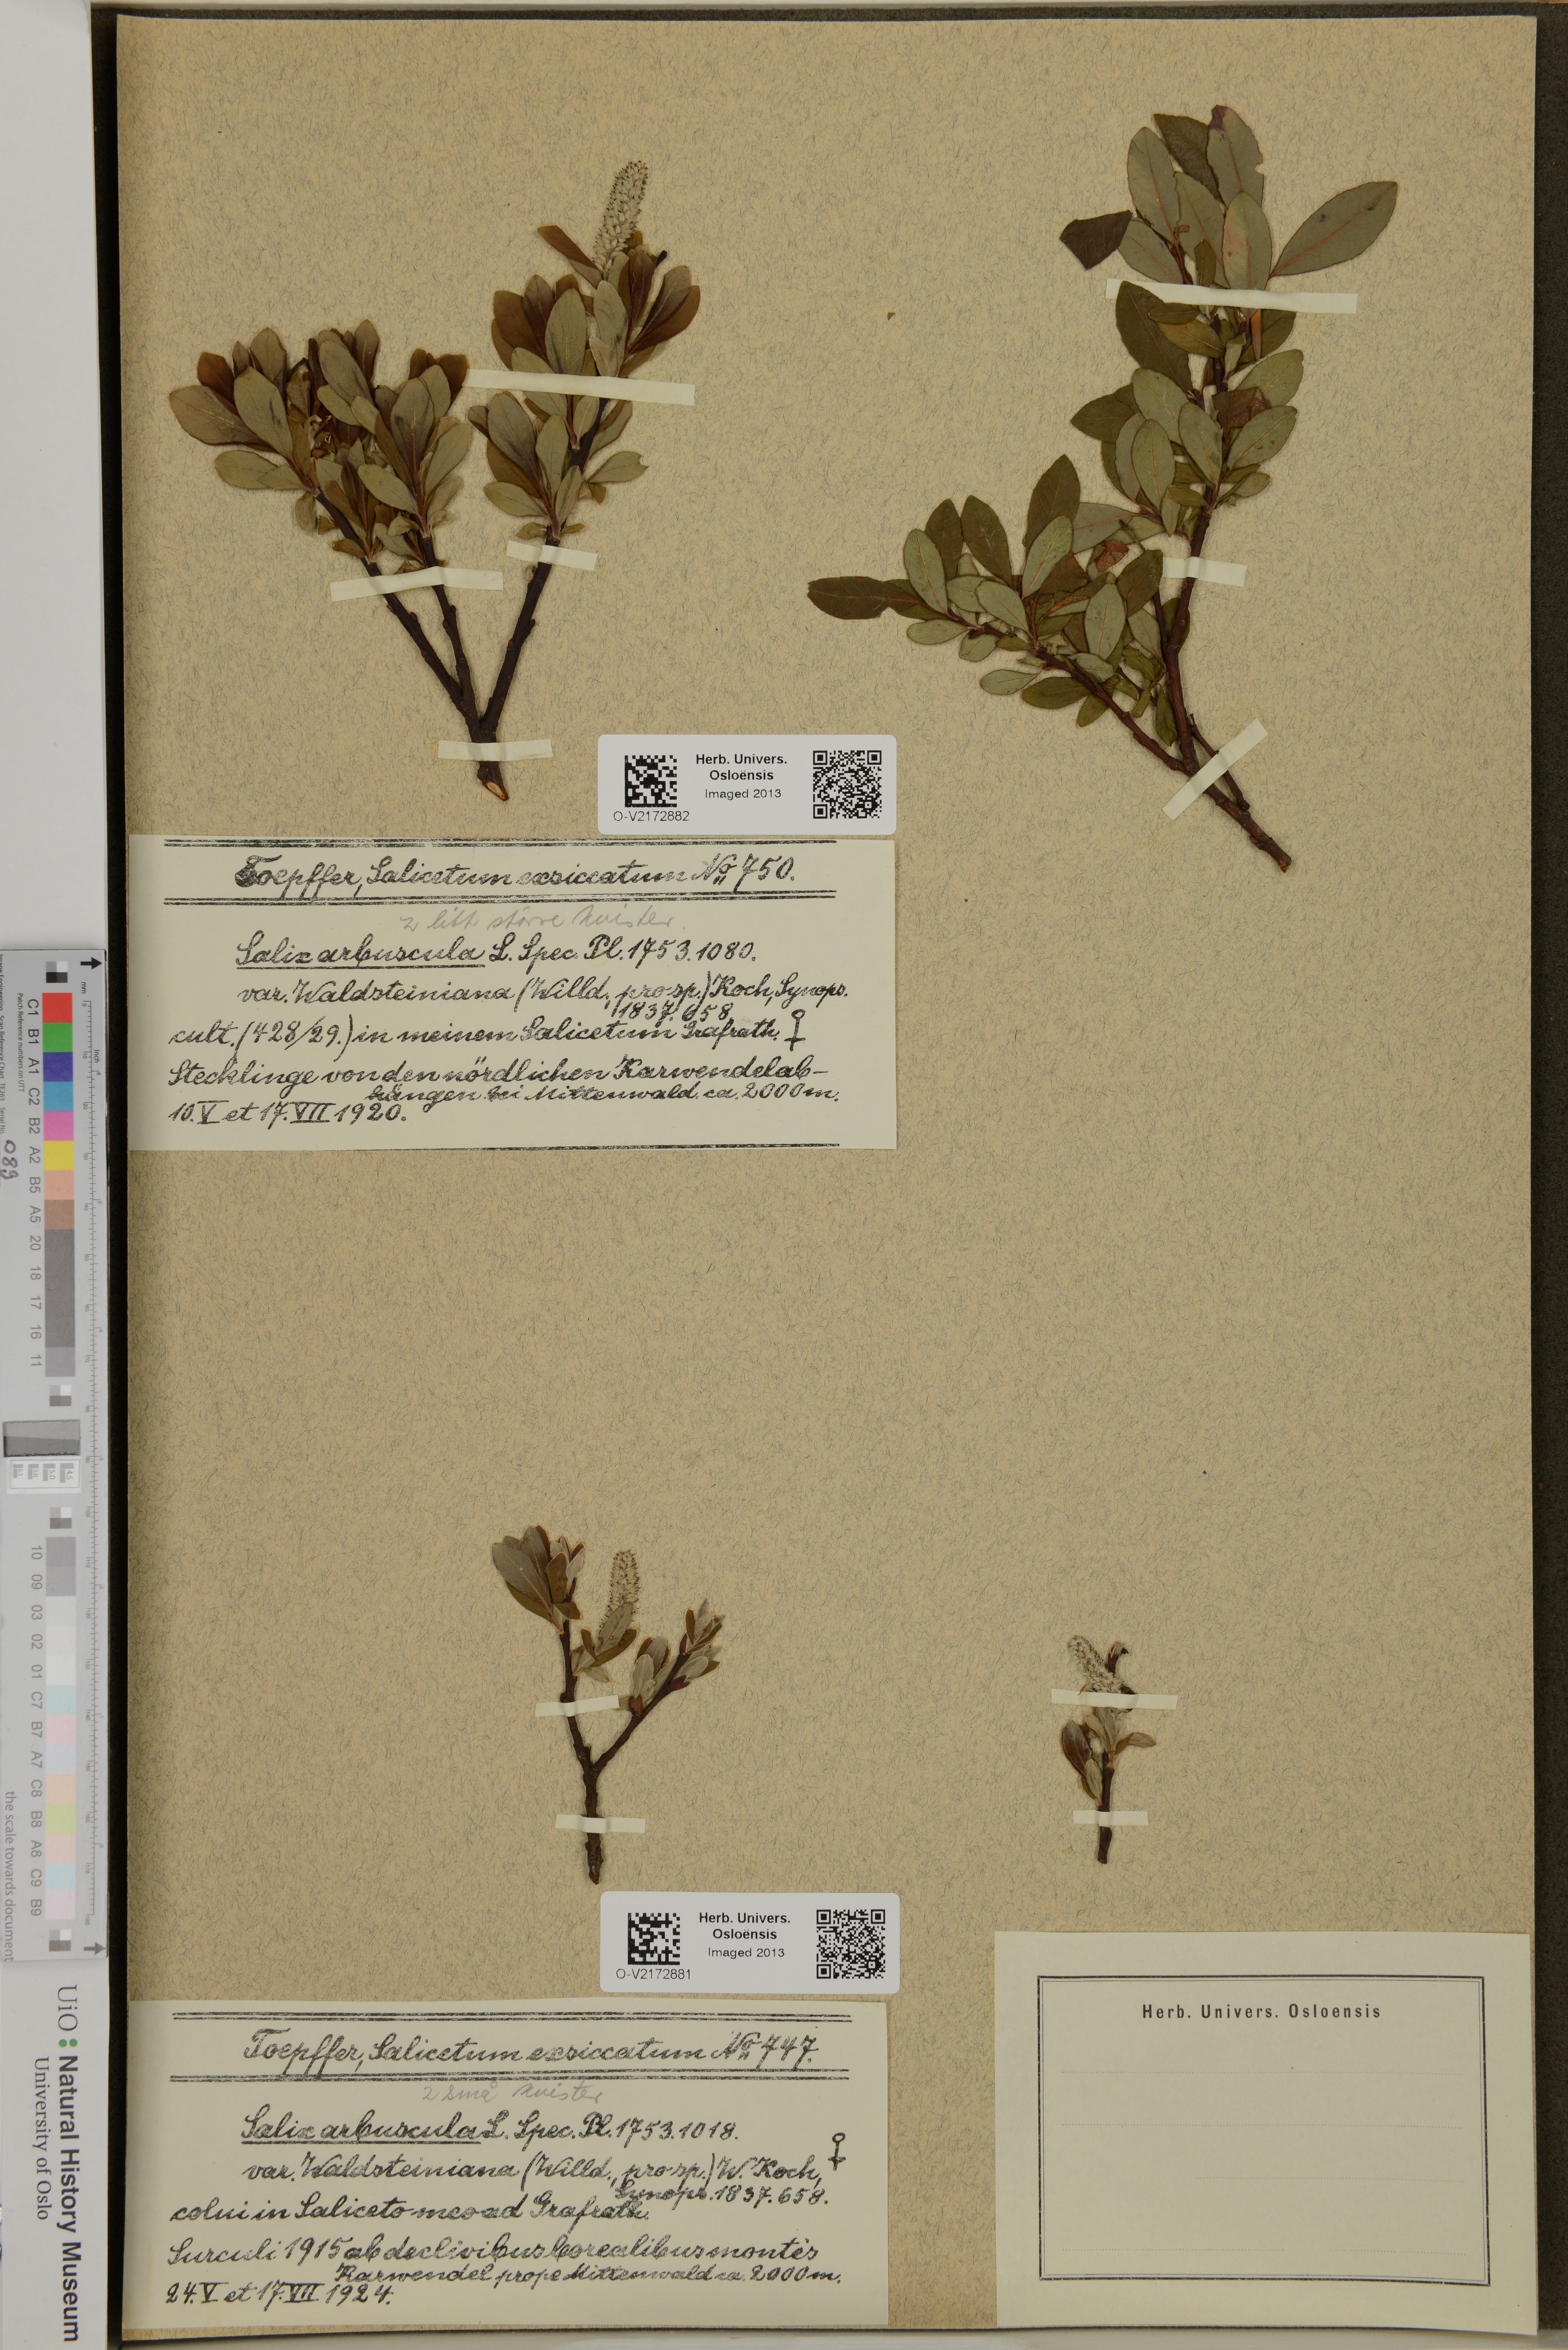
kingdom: Plantae
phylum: Tracheophyta
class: Magnoliopsida
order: Malpighiales
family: Salicaceae
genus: Salix
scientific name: Salix arbuscula
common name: Mountain willow
